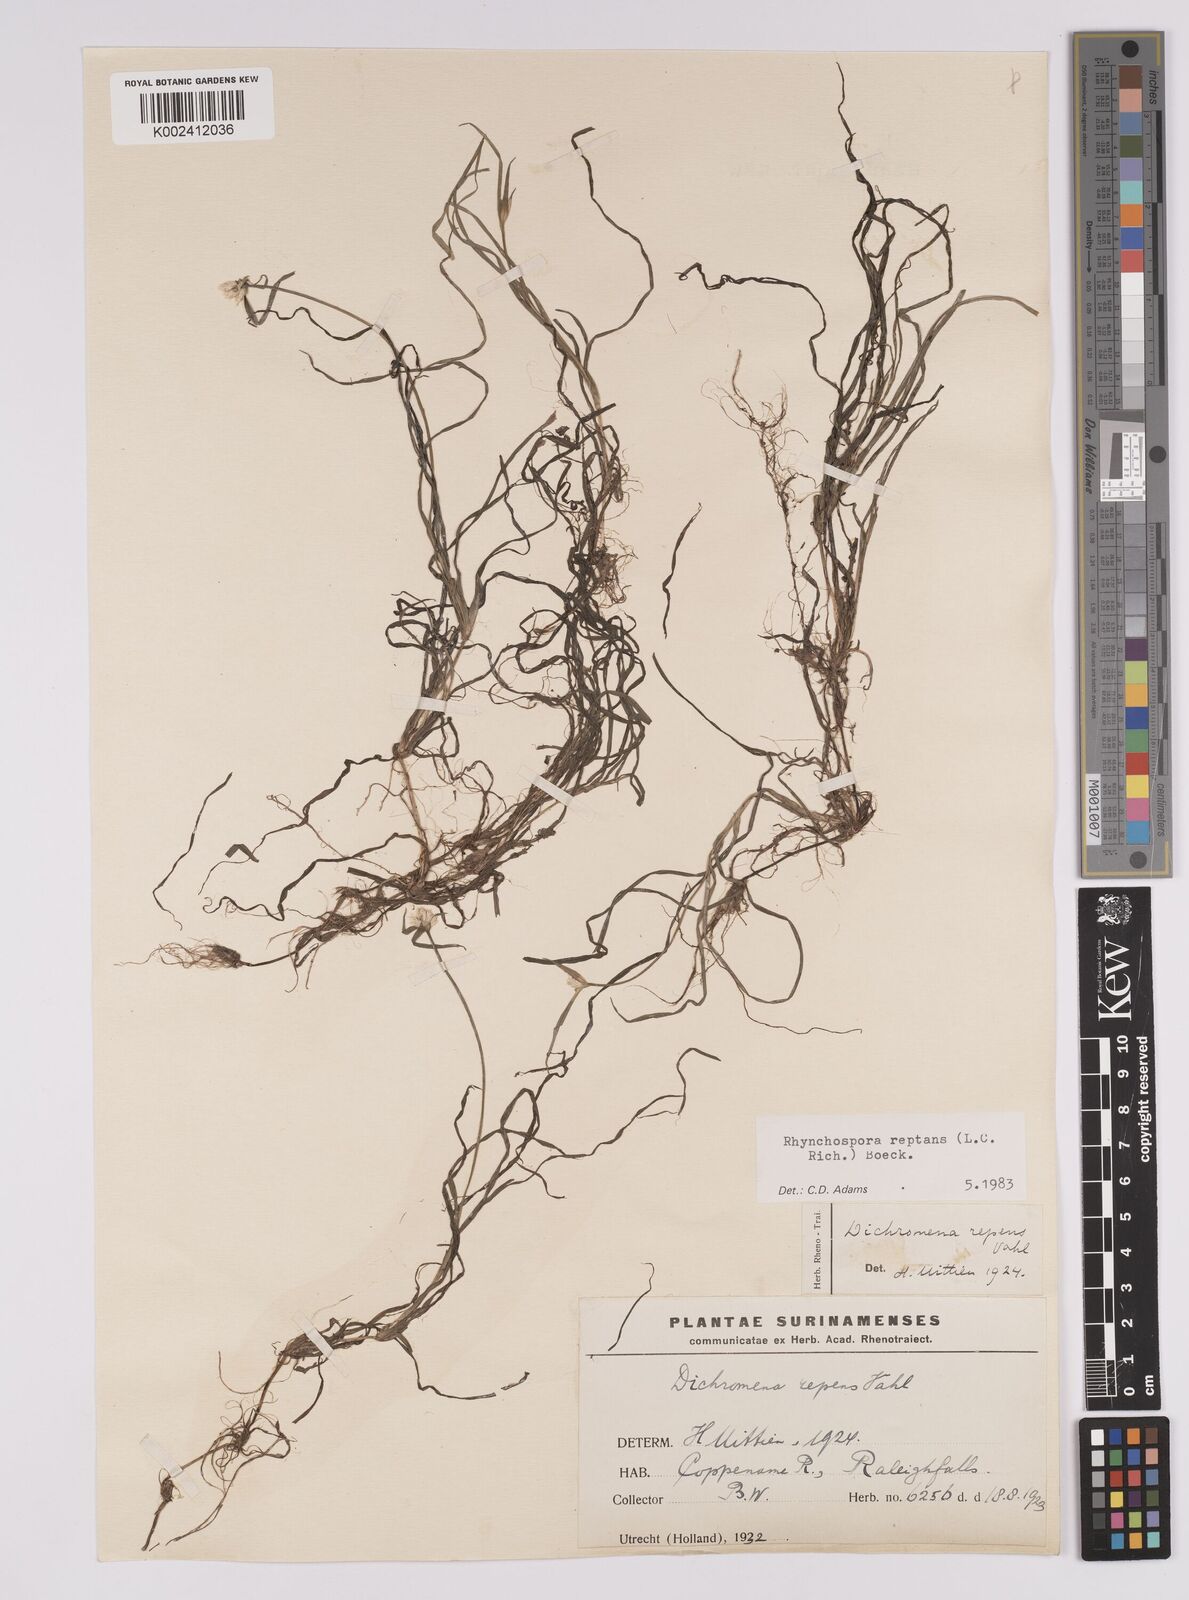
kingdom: Plantae
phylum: Tracheophyta
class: Liliopsida
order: Poales
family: Cyperaceae
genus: Rhynchospora
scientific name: Rhynchospora reptans
